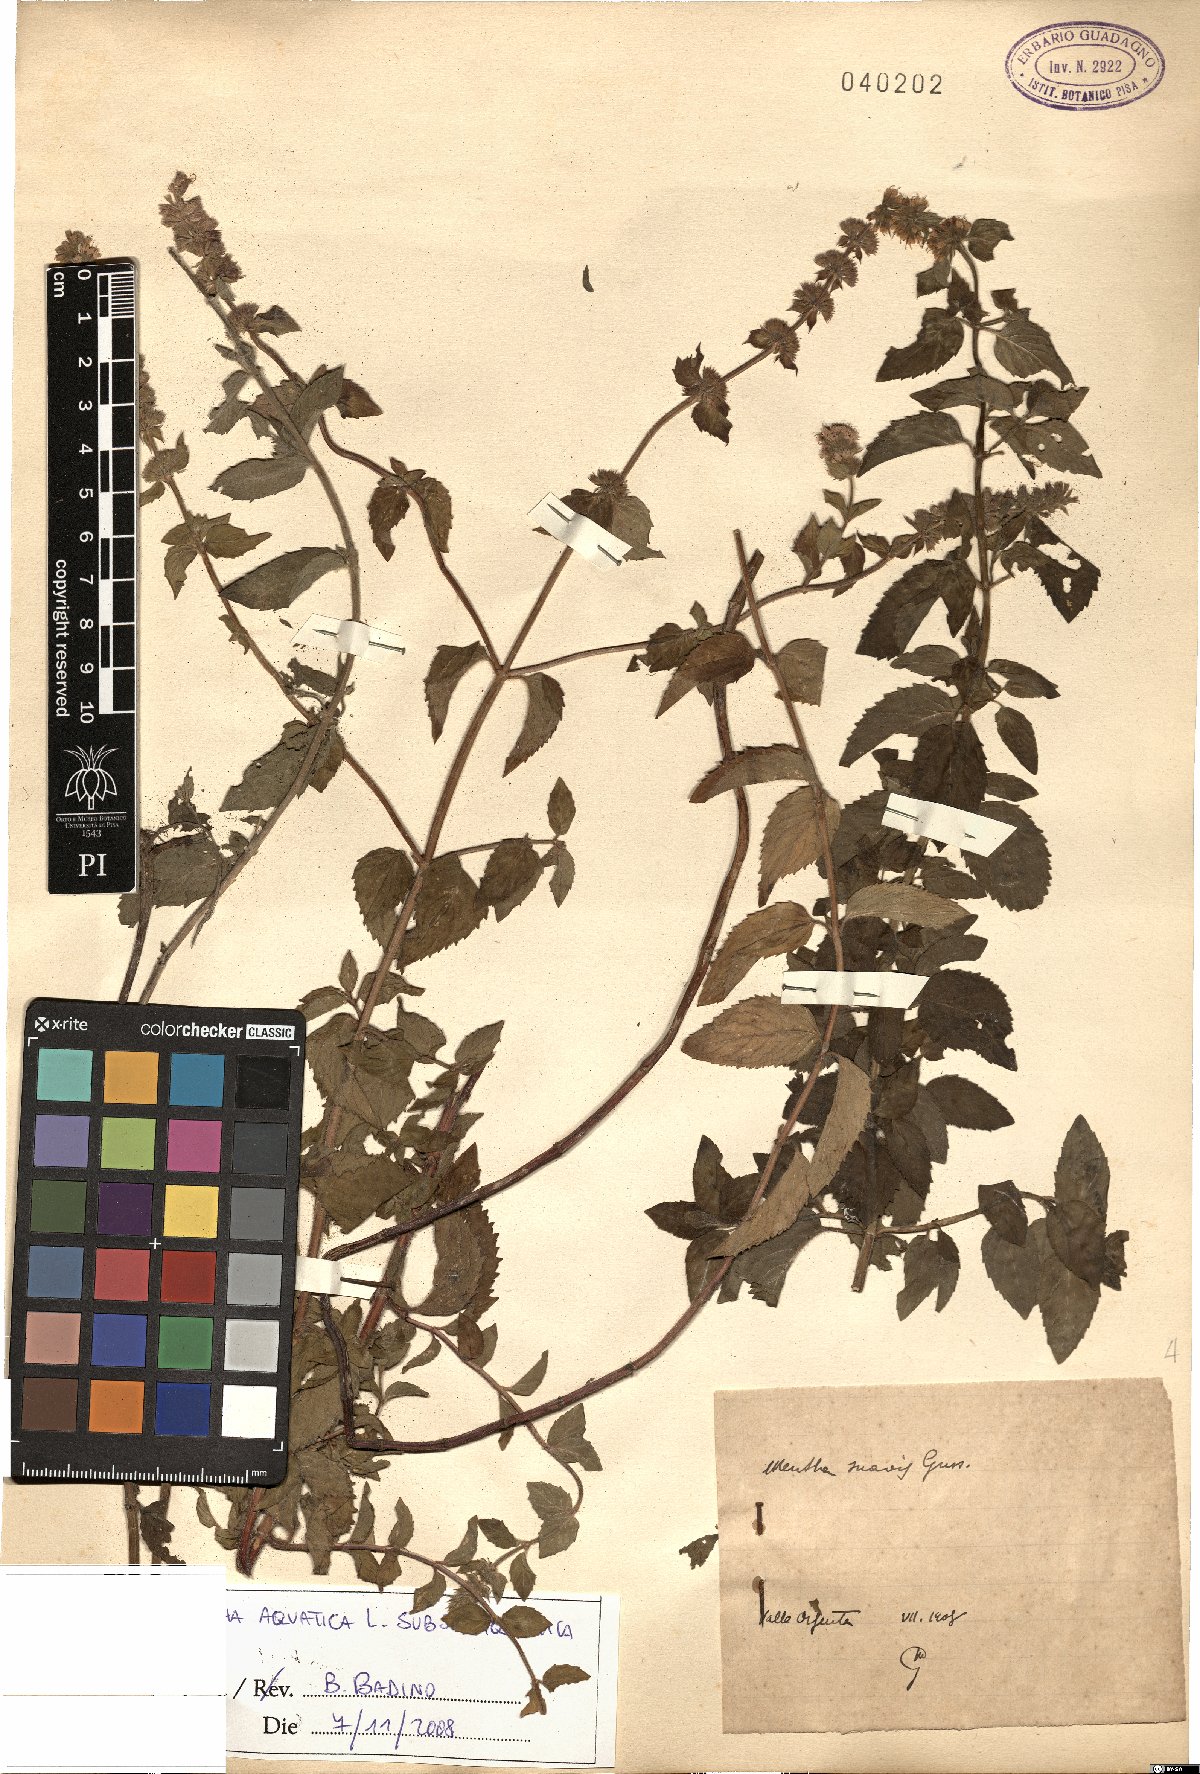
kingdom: Plantae
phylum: Tracheophyta
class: Magnoliopsida
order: Lamiales
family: Lamiaceae
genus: Mentha
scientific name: Mentha aquatica
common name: Water mint
